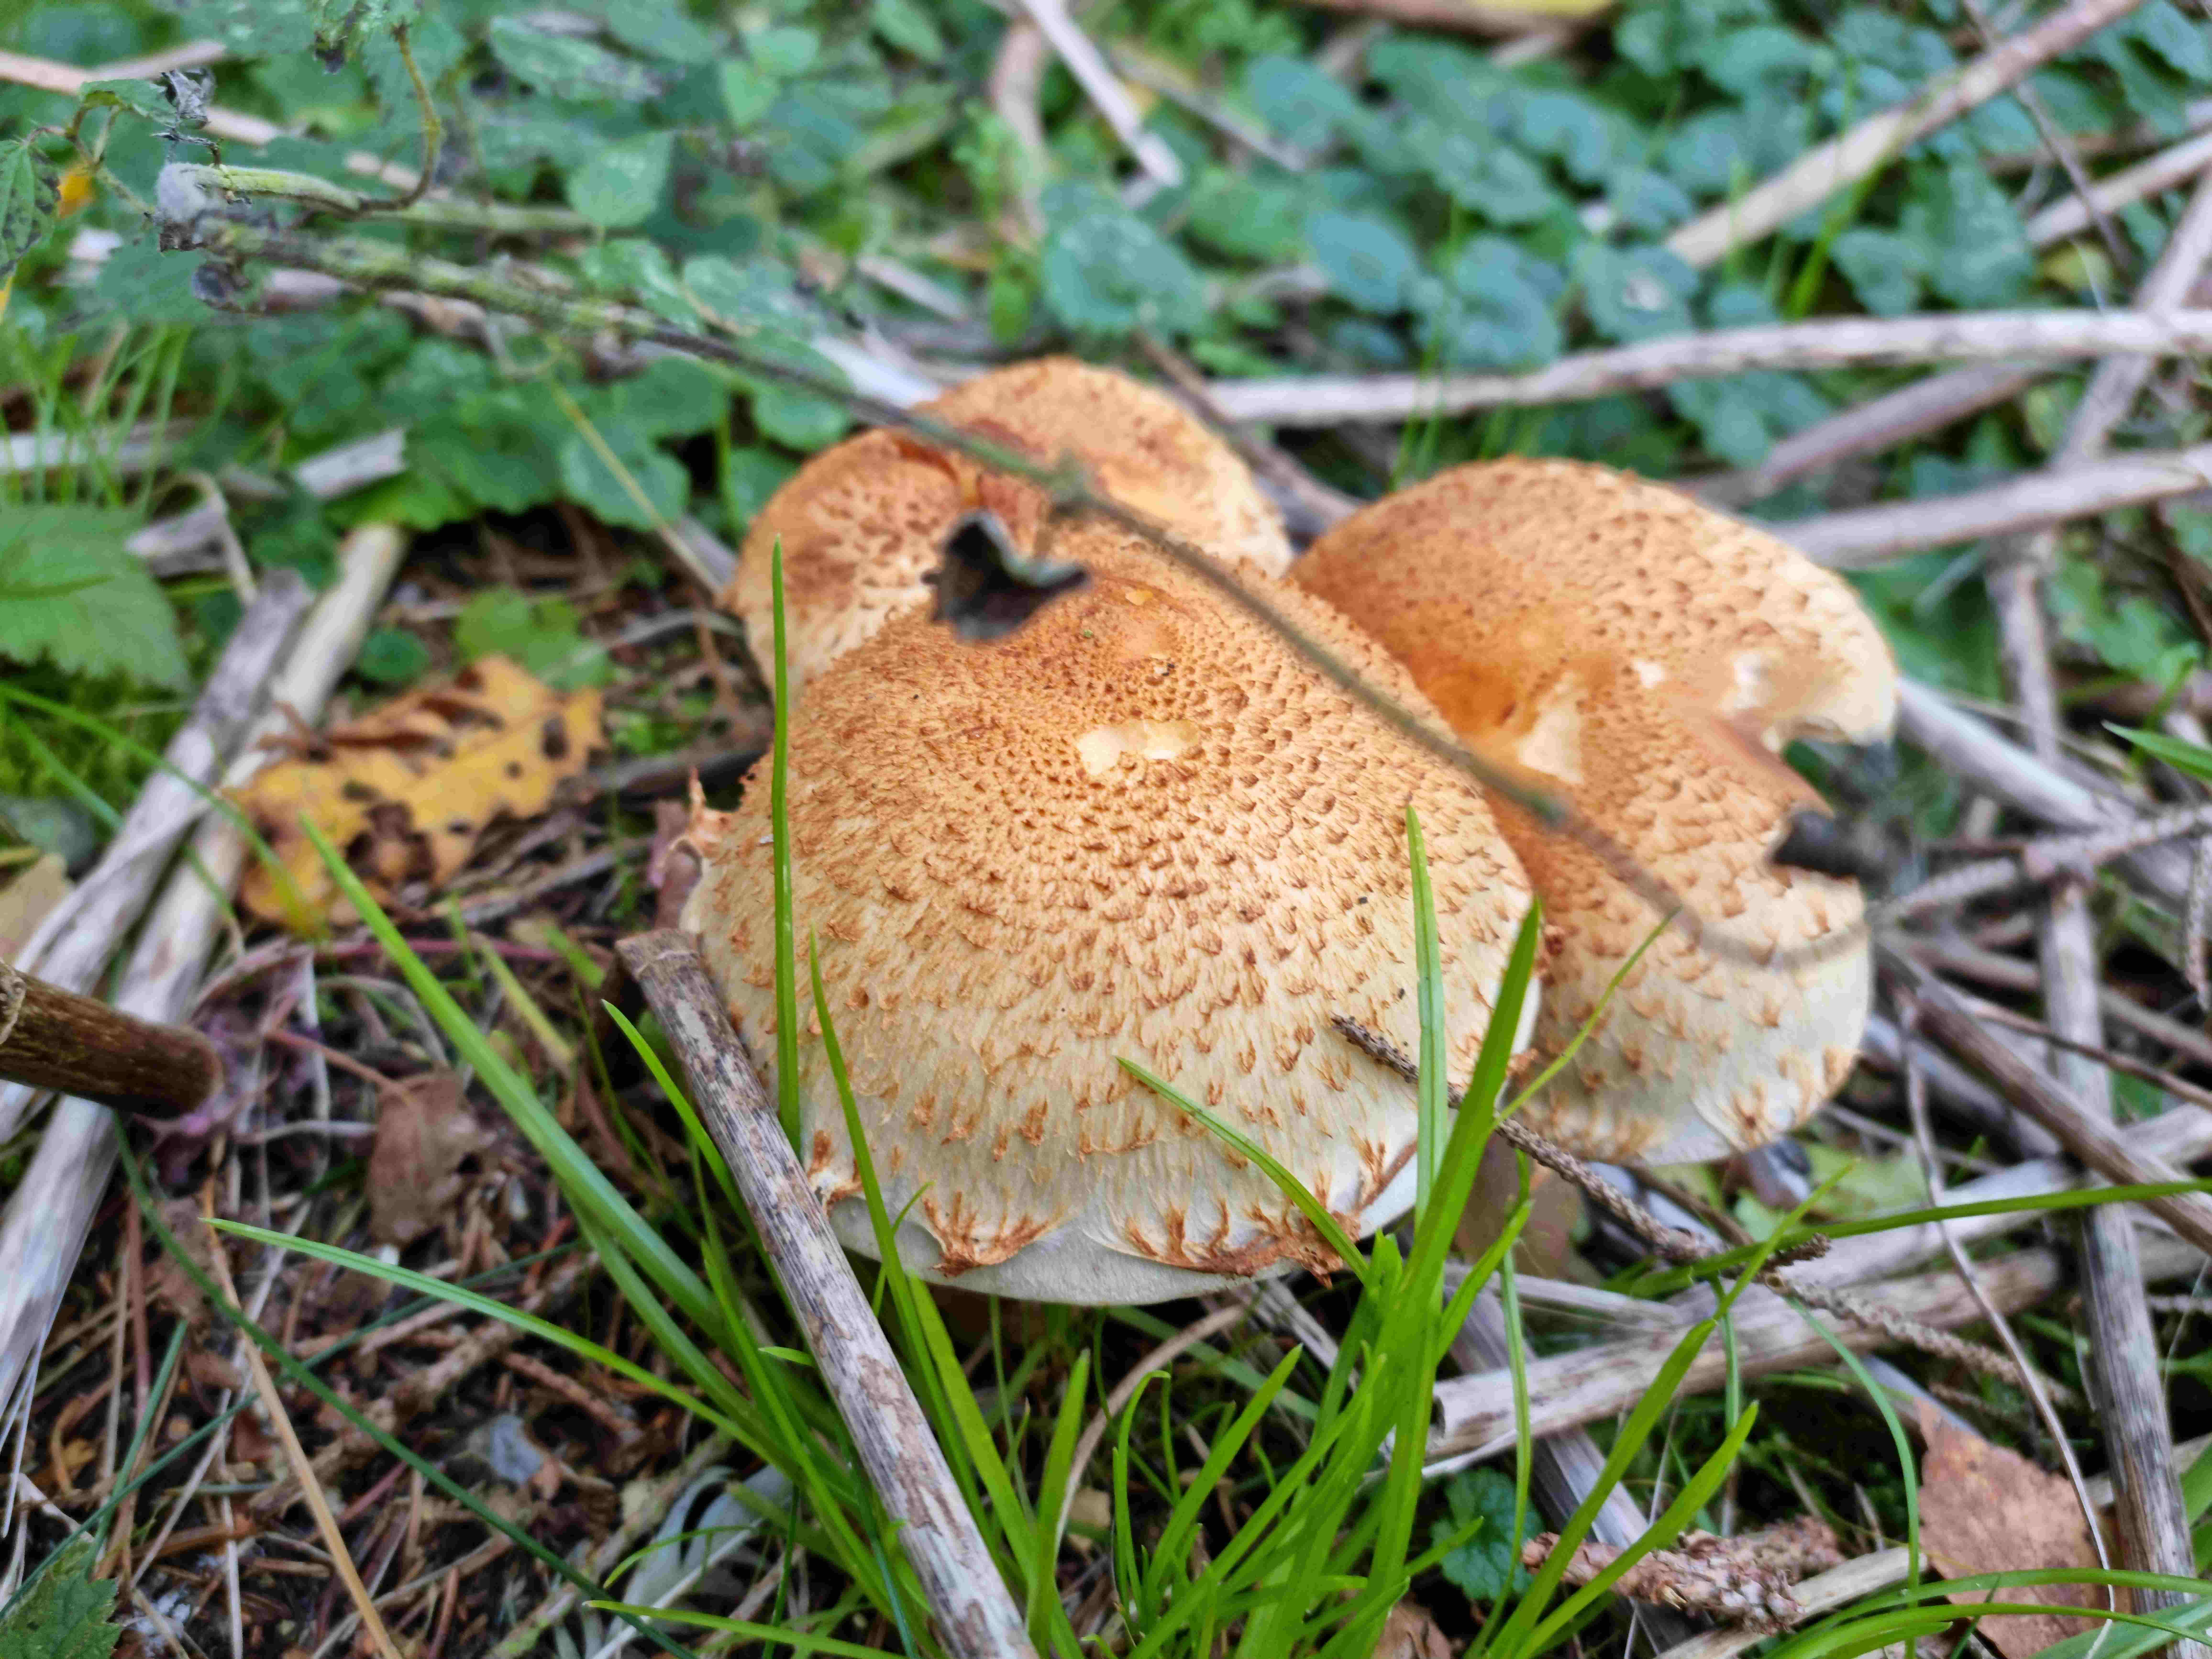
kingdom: Fungi
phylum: Basidiomycota
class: Agaricomycetes
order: Agaricales
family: Strophariaceae
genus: Pholiota
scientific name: Pholiota squarrosa
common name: krumskællet skælhat
